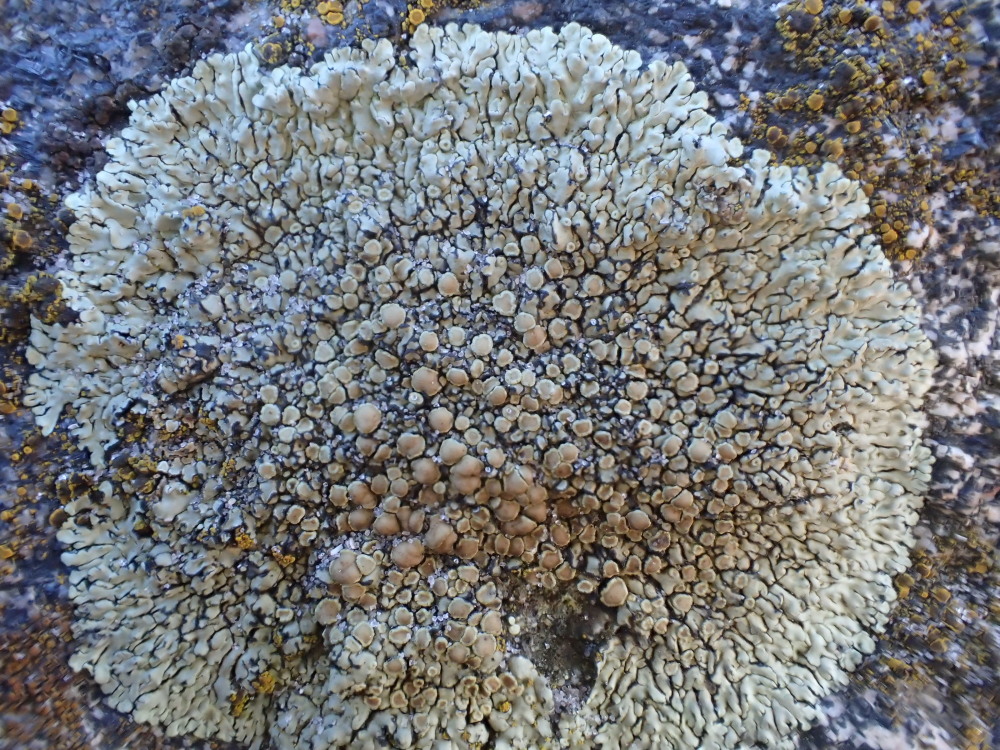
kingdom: Fungi
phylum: Ascomycota
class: Lecanoromycetes
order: Lecanorales
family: Lecanoraceae
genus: Protoparmeliopsis
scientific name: Protoparmeliopsis muralis
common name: randfliget kantskivelav
